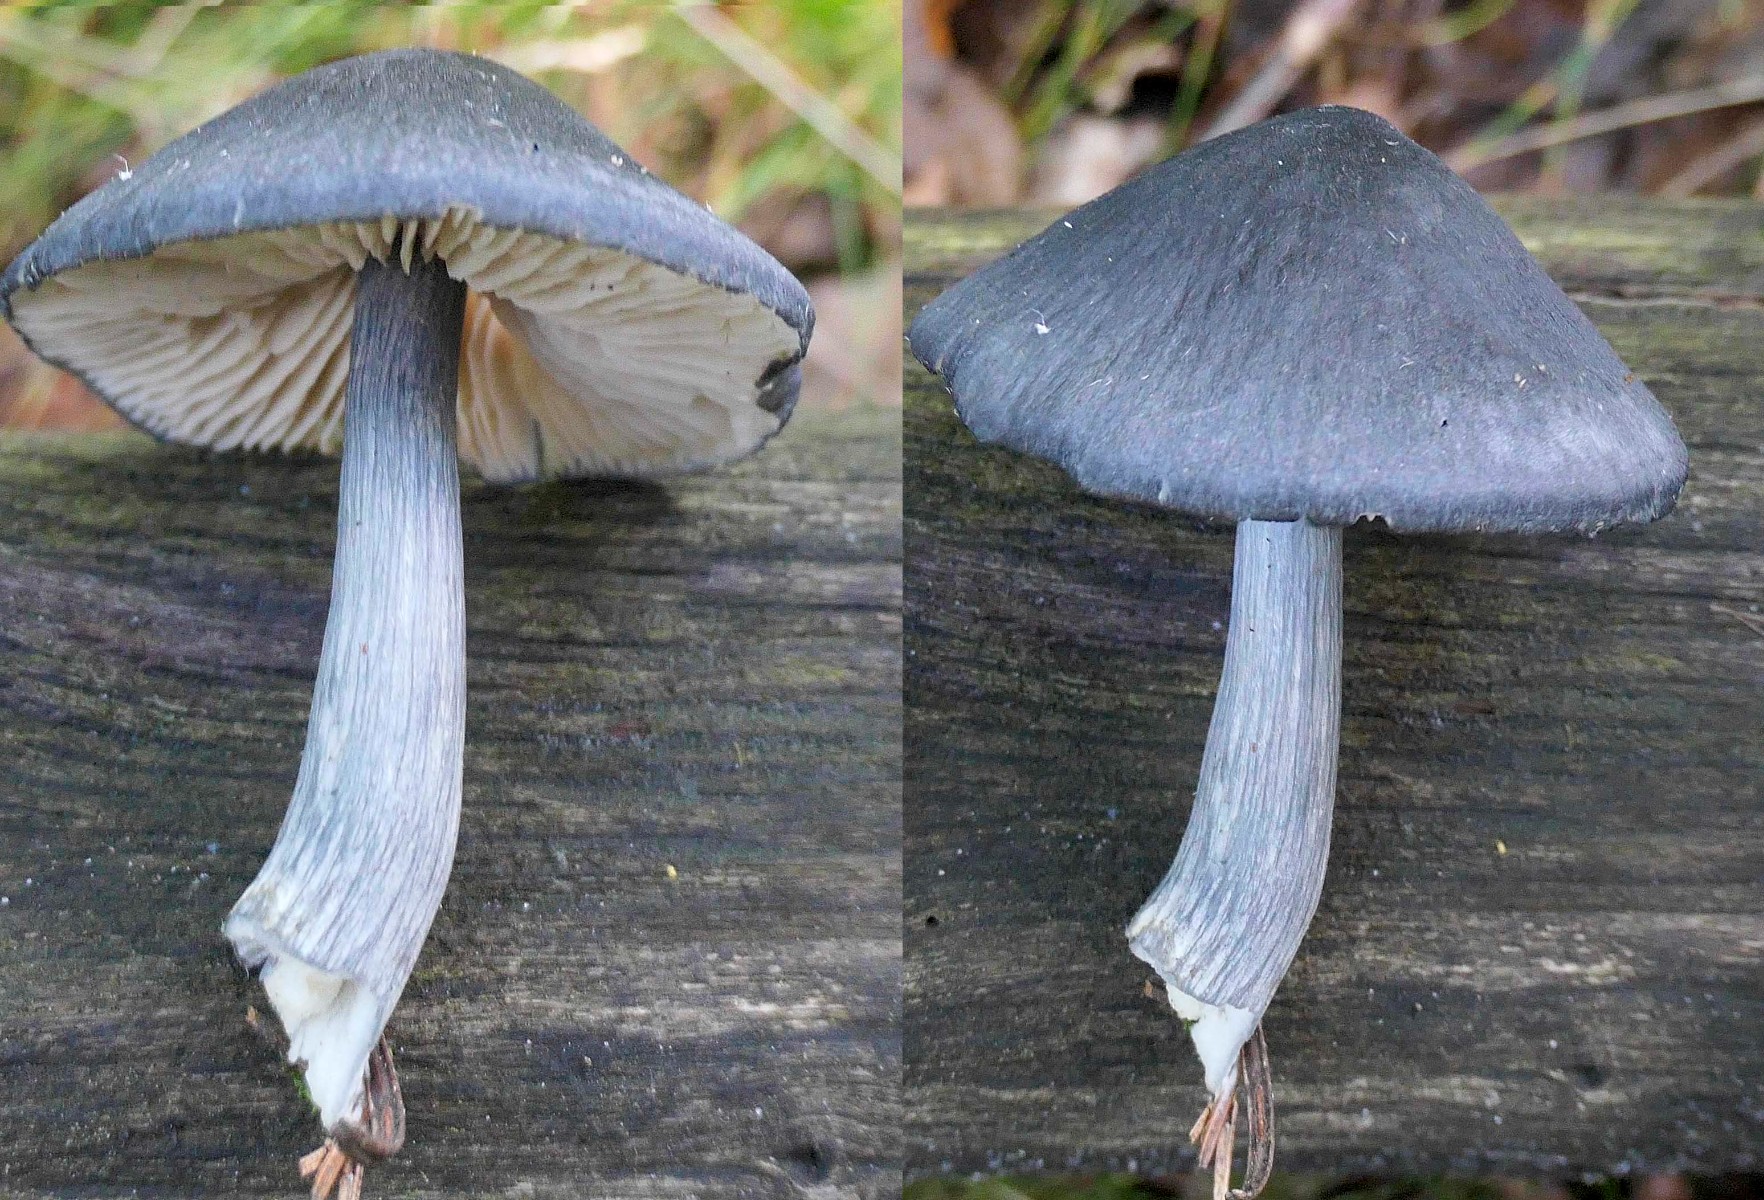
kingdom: Fungi
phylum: Basidiomycota
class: Agaricomycetes
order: Agaricales
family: Entolomataceae
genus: Entocybe
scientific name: Entocybe nitida
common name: stålblå rødblad
